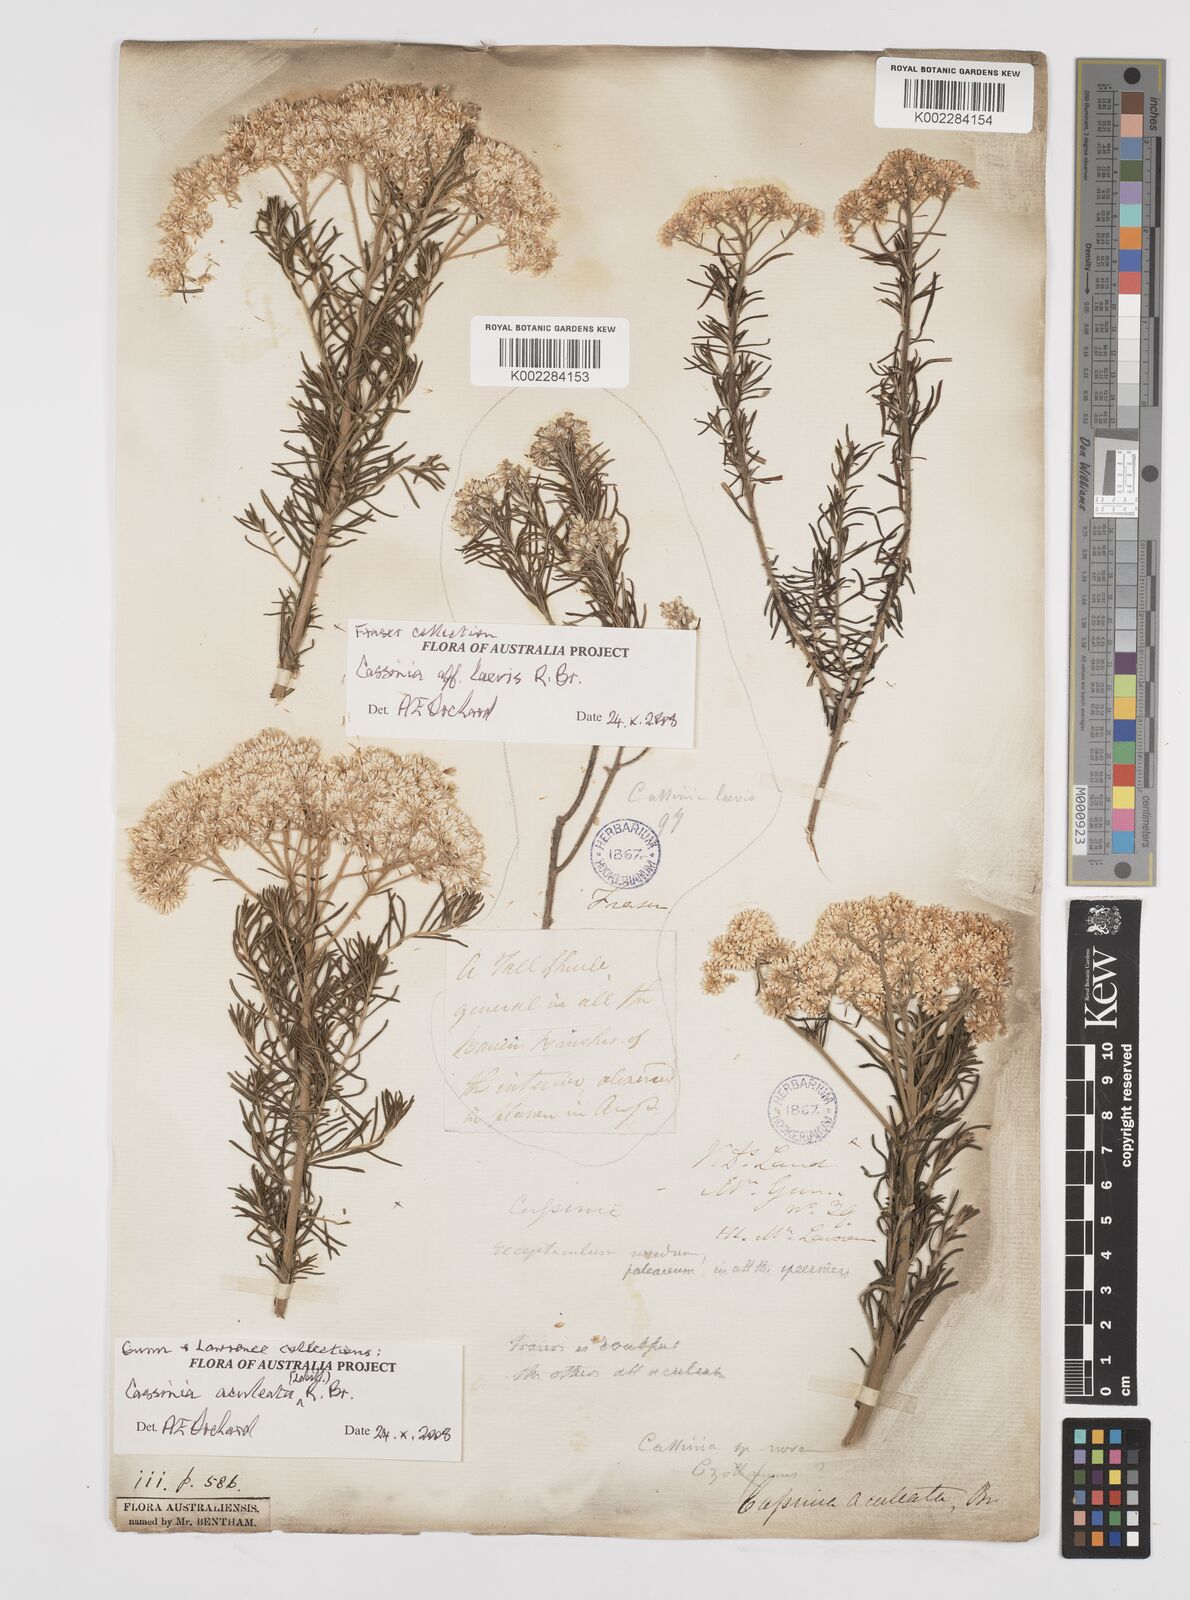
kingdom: Plantae
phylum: Tracheophyta
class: Magnoliopsida
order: Asterales
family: Asteraceae
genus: Cassinia
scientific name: Cassinia aculeata
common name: Australian tauhinu
